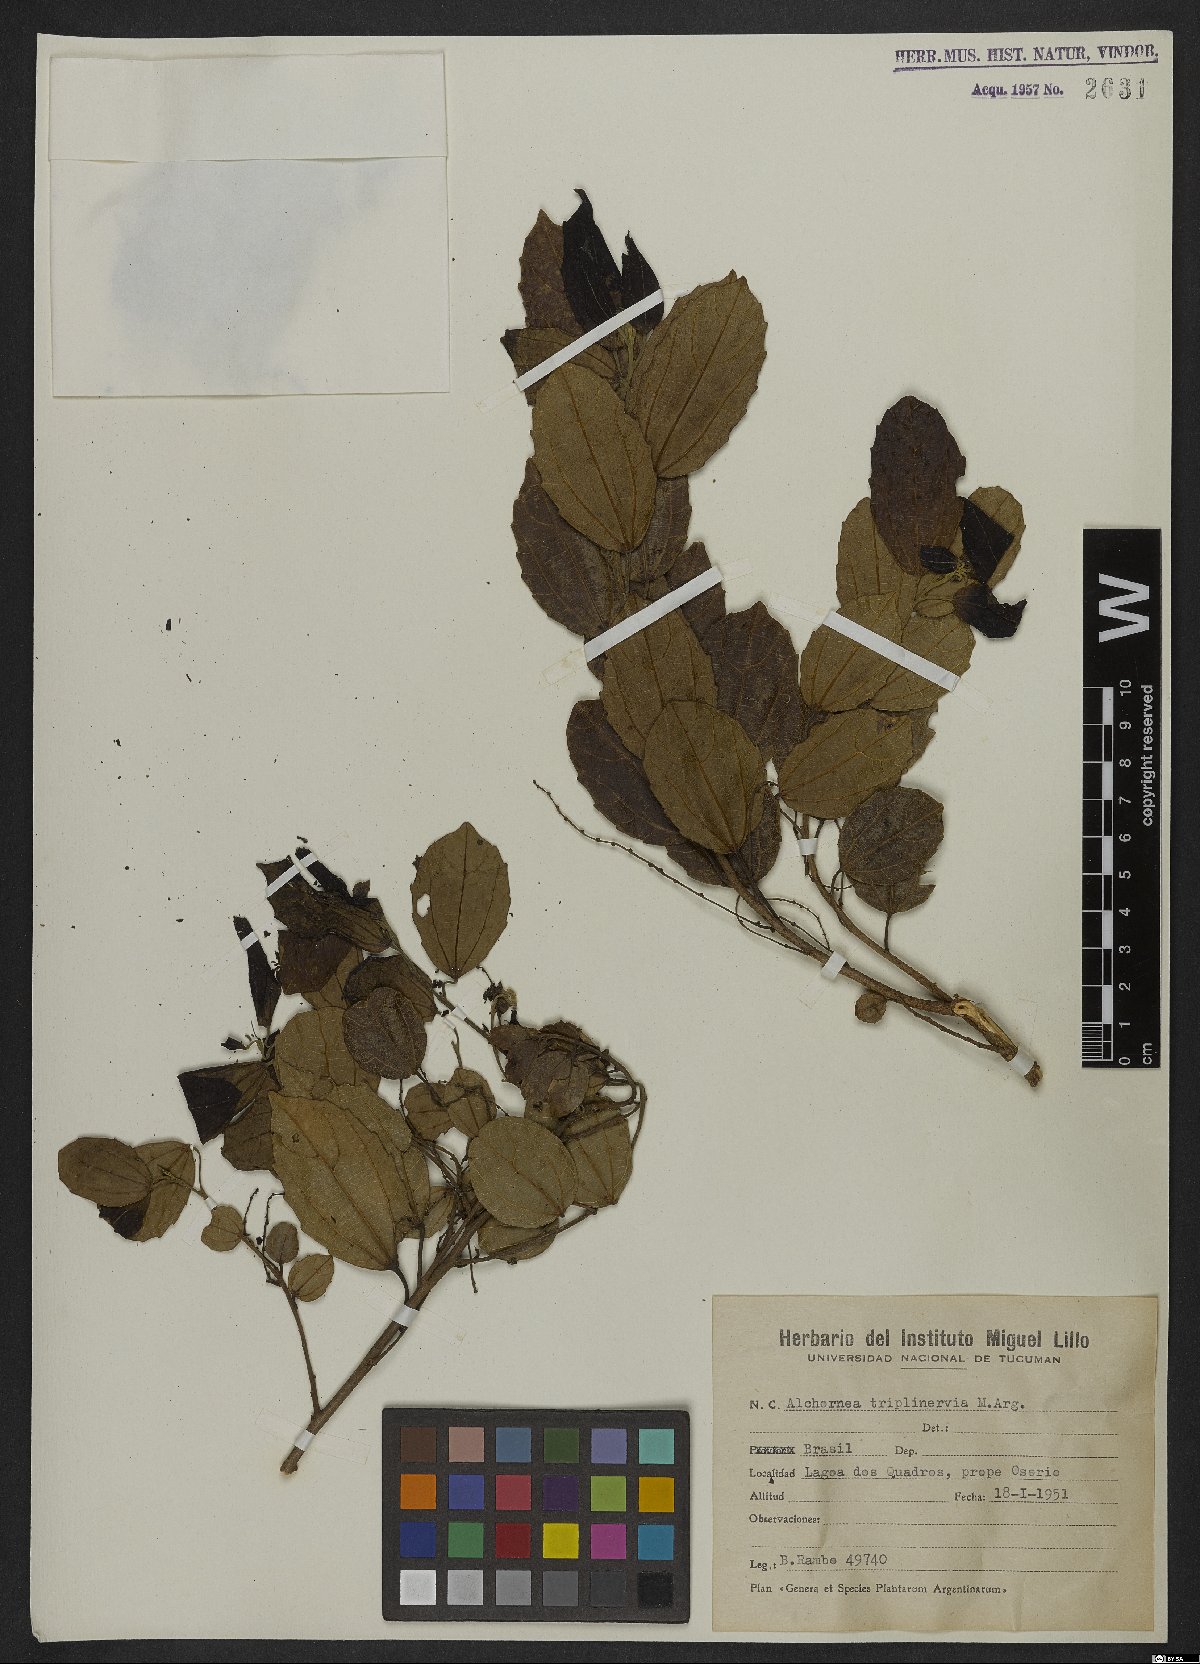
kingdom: Plantae
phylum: Tracheophyta
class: Magnoliopsida
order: Malpighiales
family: Euphorbiaceae
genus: Alchornea
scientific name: Alchornea triplinervia
